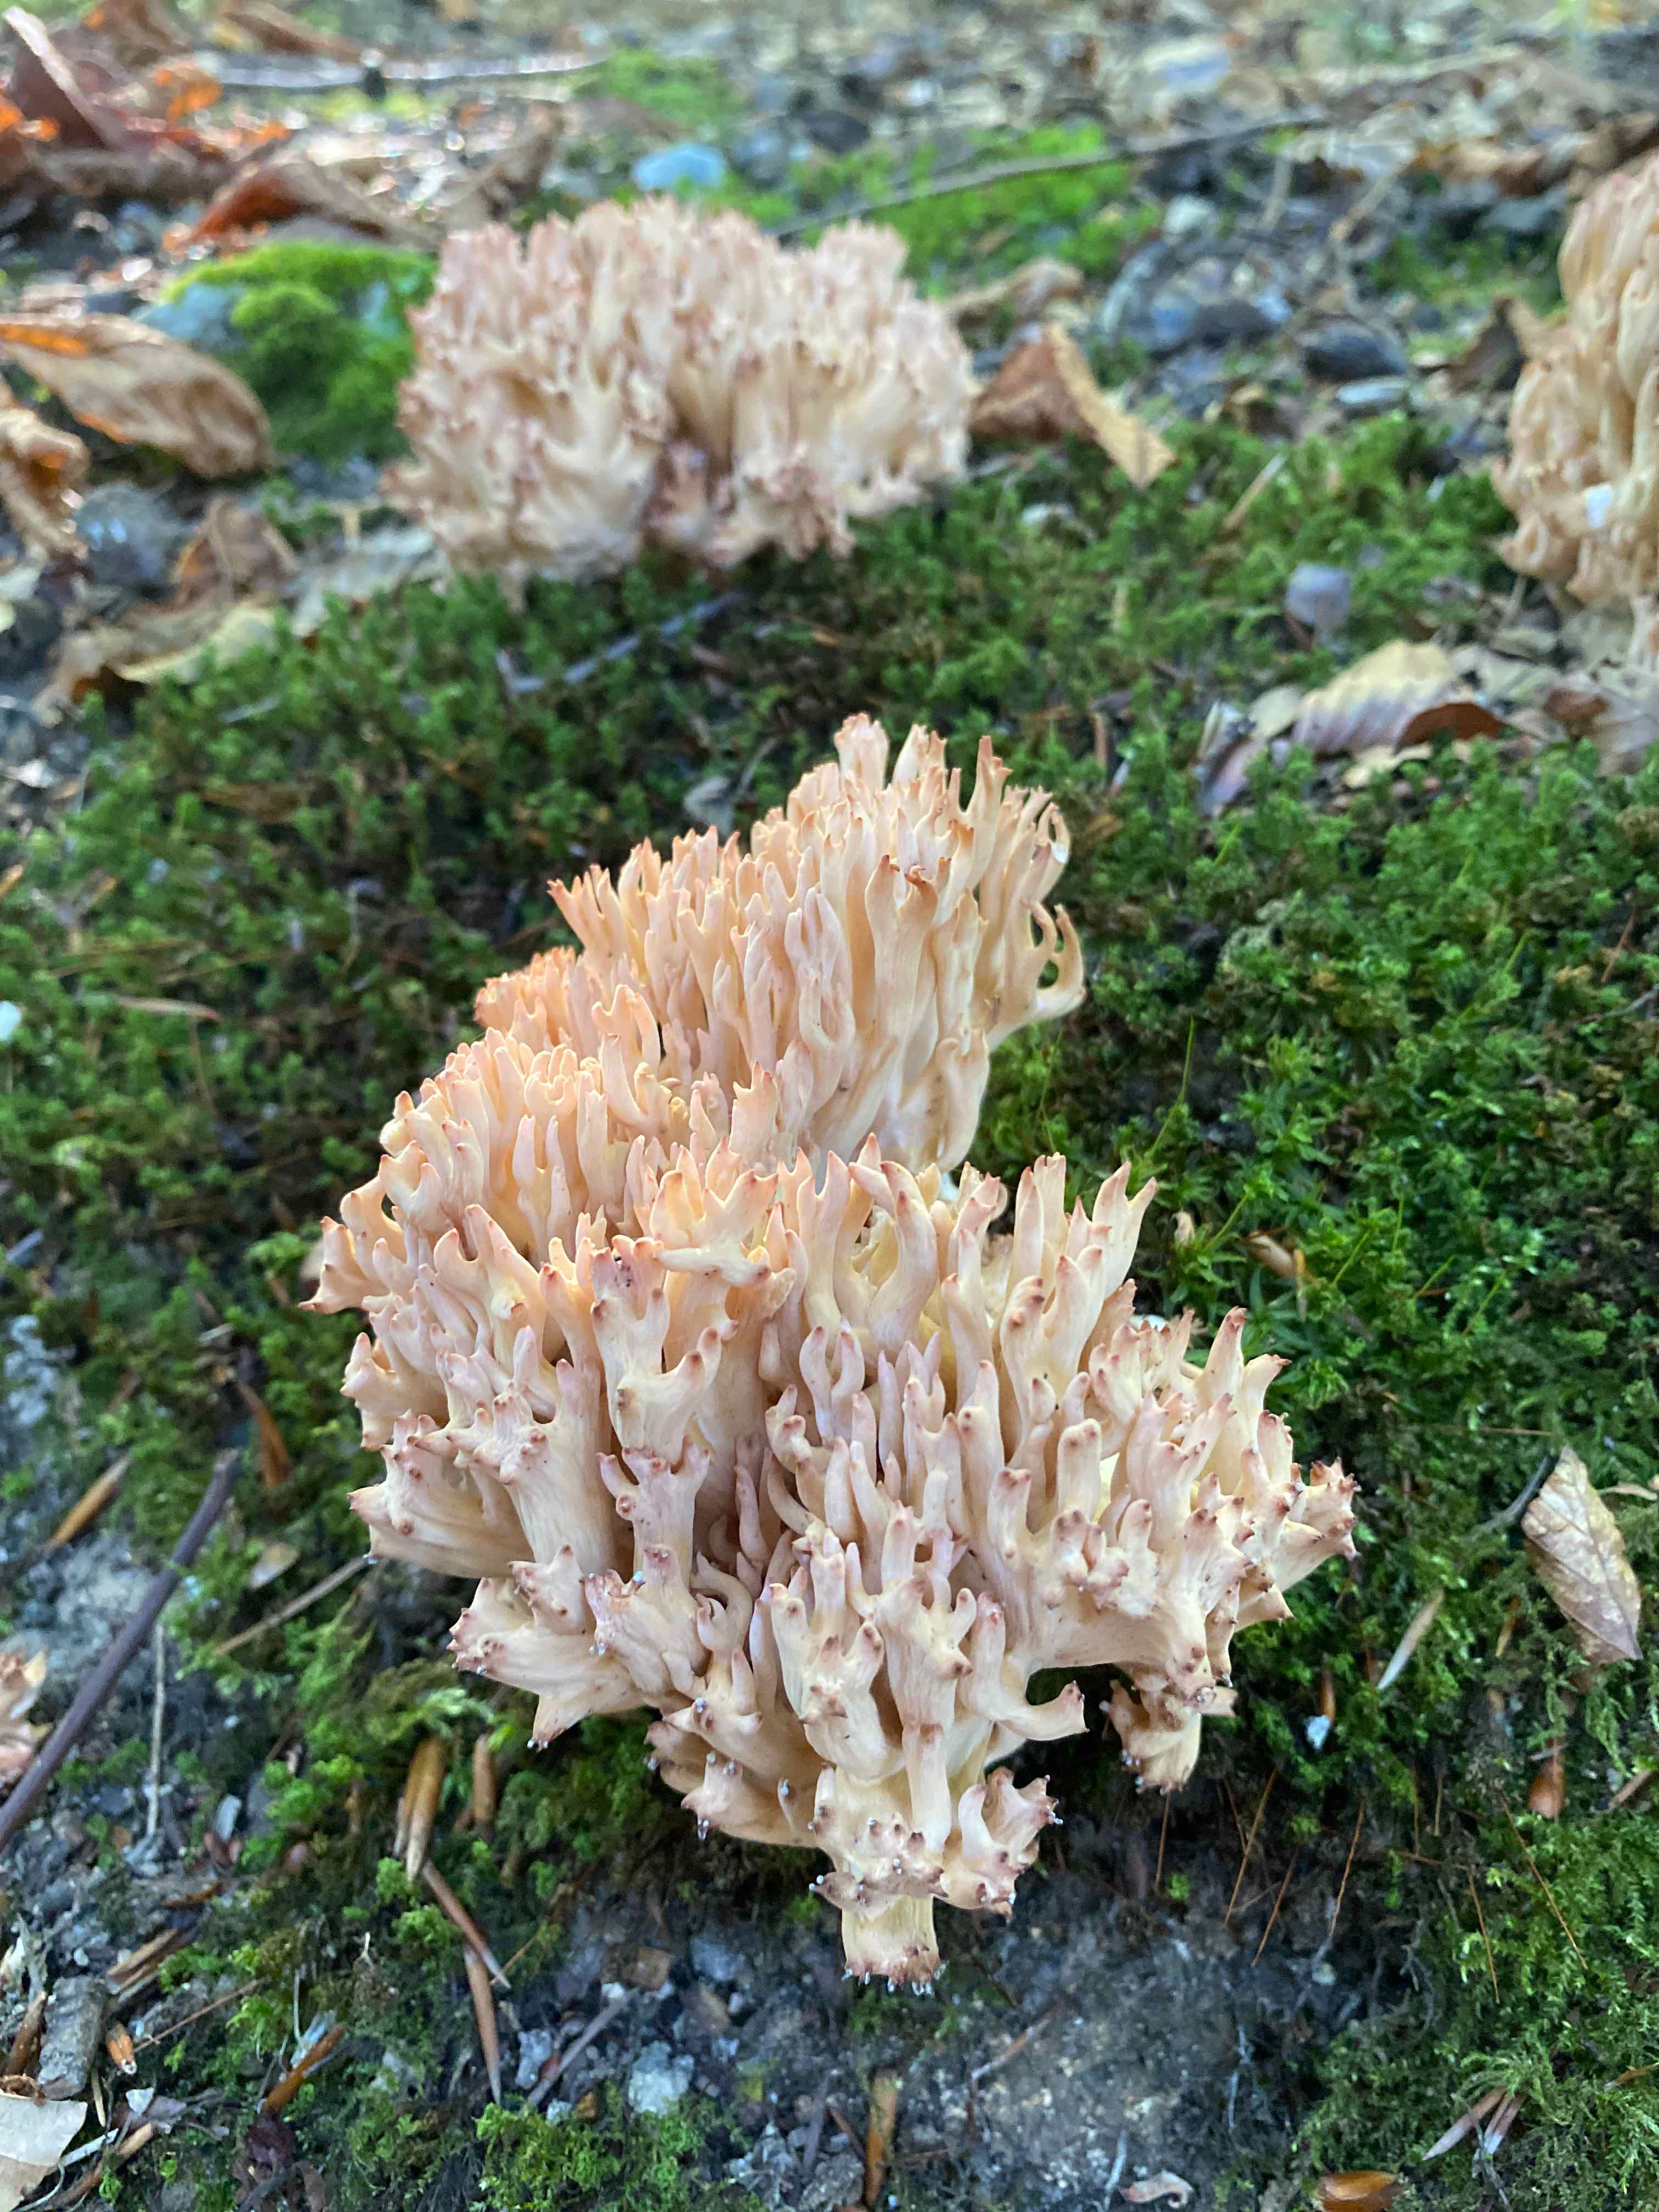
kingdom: Fungi
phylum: Basidiomycota
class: Agaricomycetes
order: Gomphales
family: Gomphaceae
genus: Ramaria
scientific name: Ramaria botrytis
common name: drue-koralsvamp
